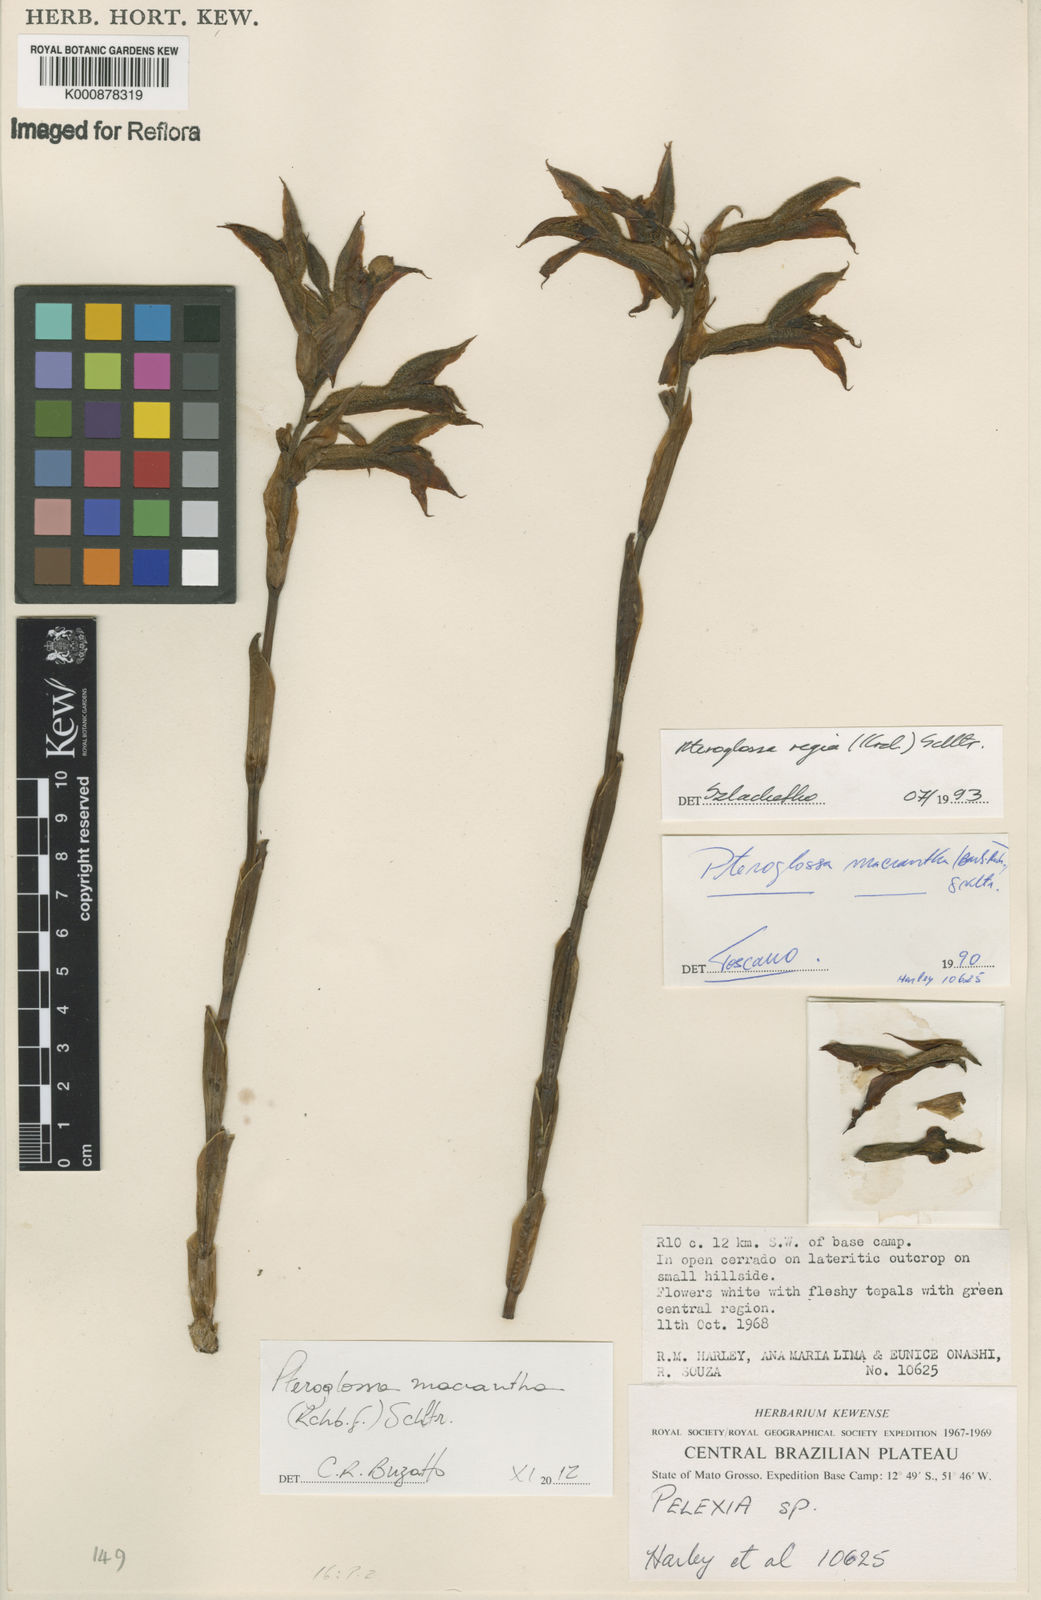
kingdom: Plantae
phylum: Tracheophyta
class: Liliopsida
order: Asparagales
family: Orchidaceae
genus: Pteroglossa
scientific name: Pteroglossa macrantha
